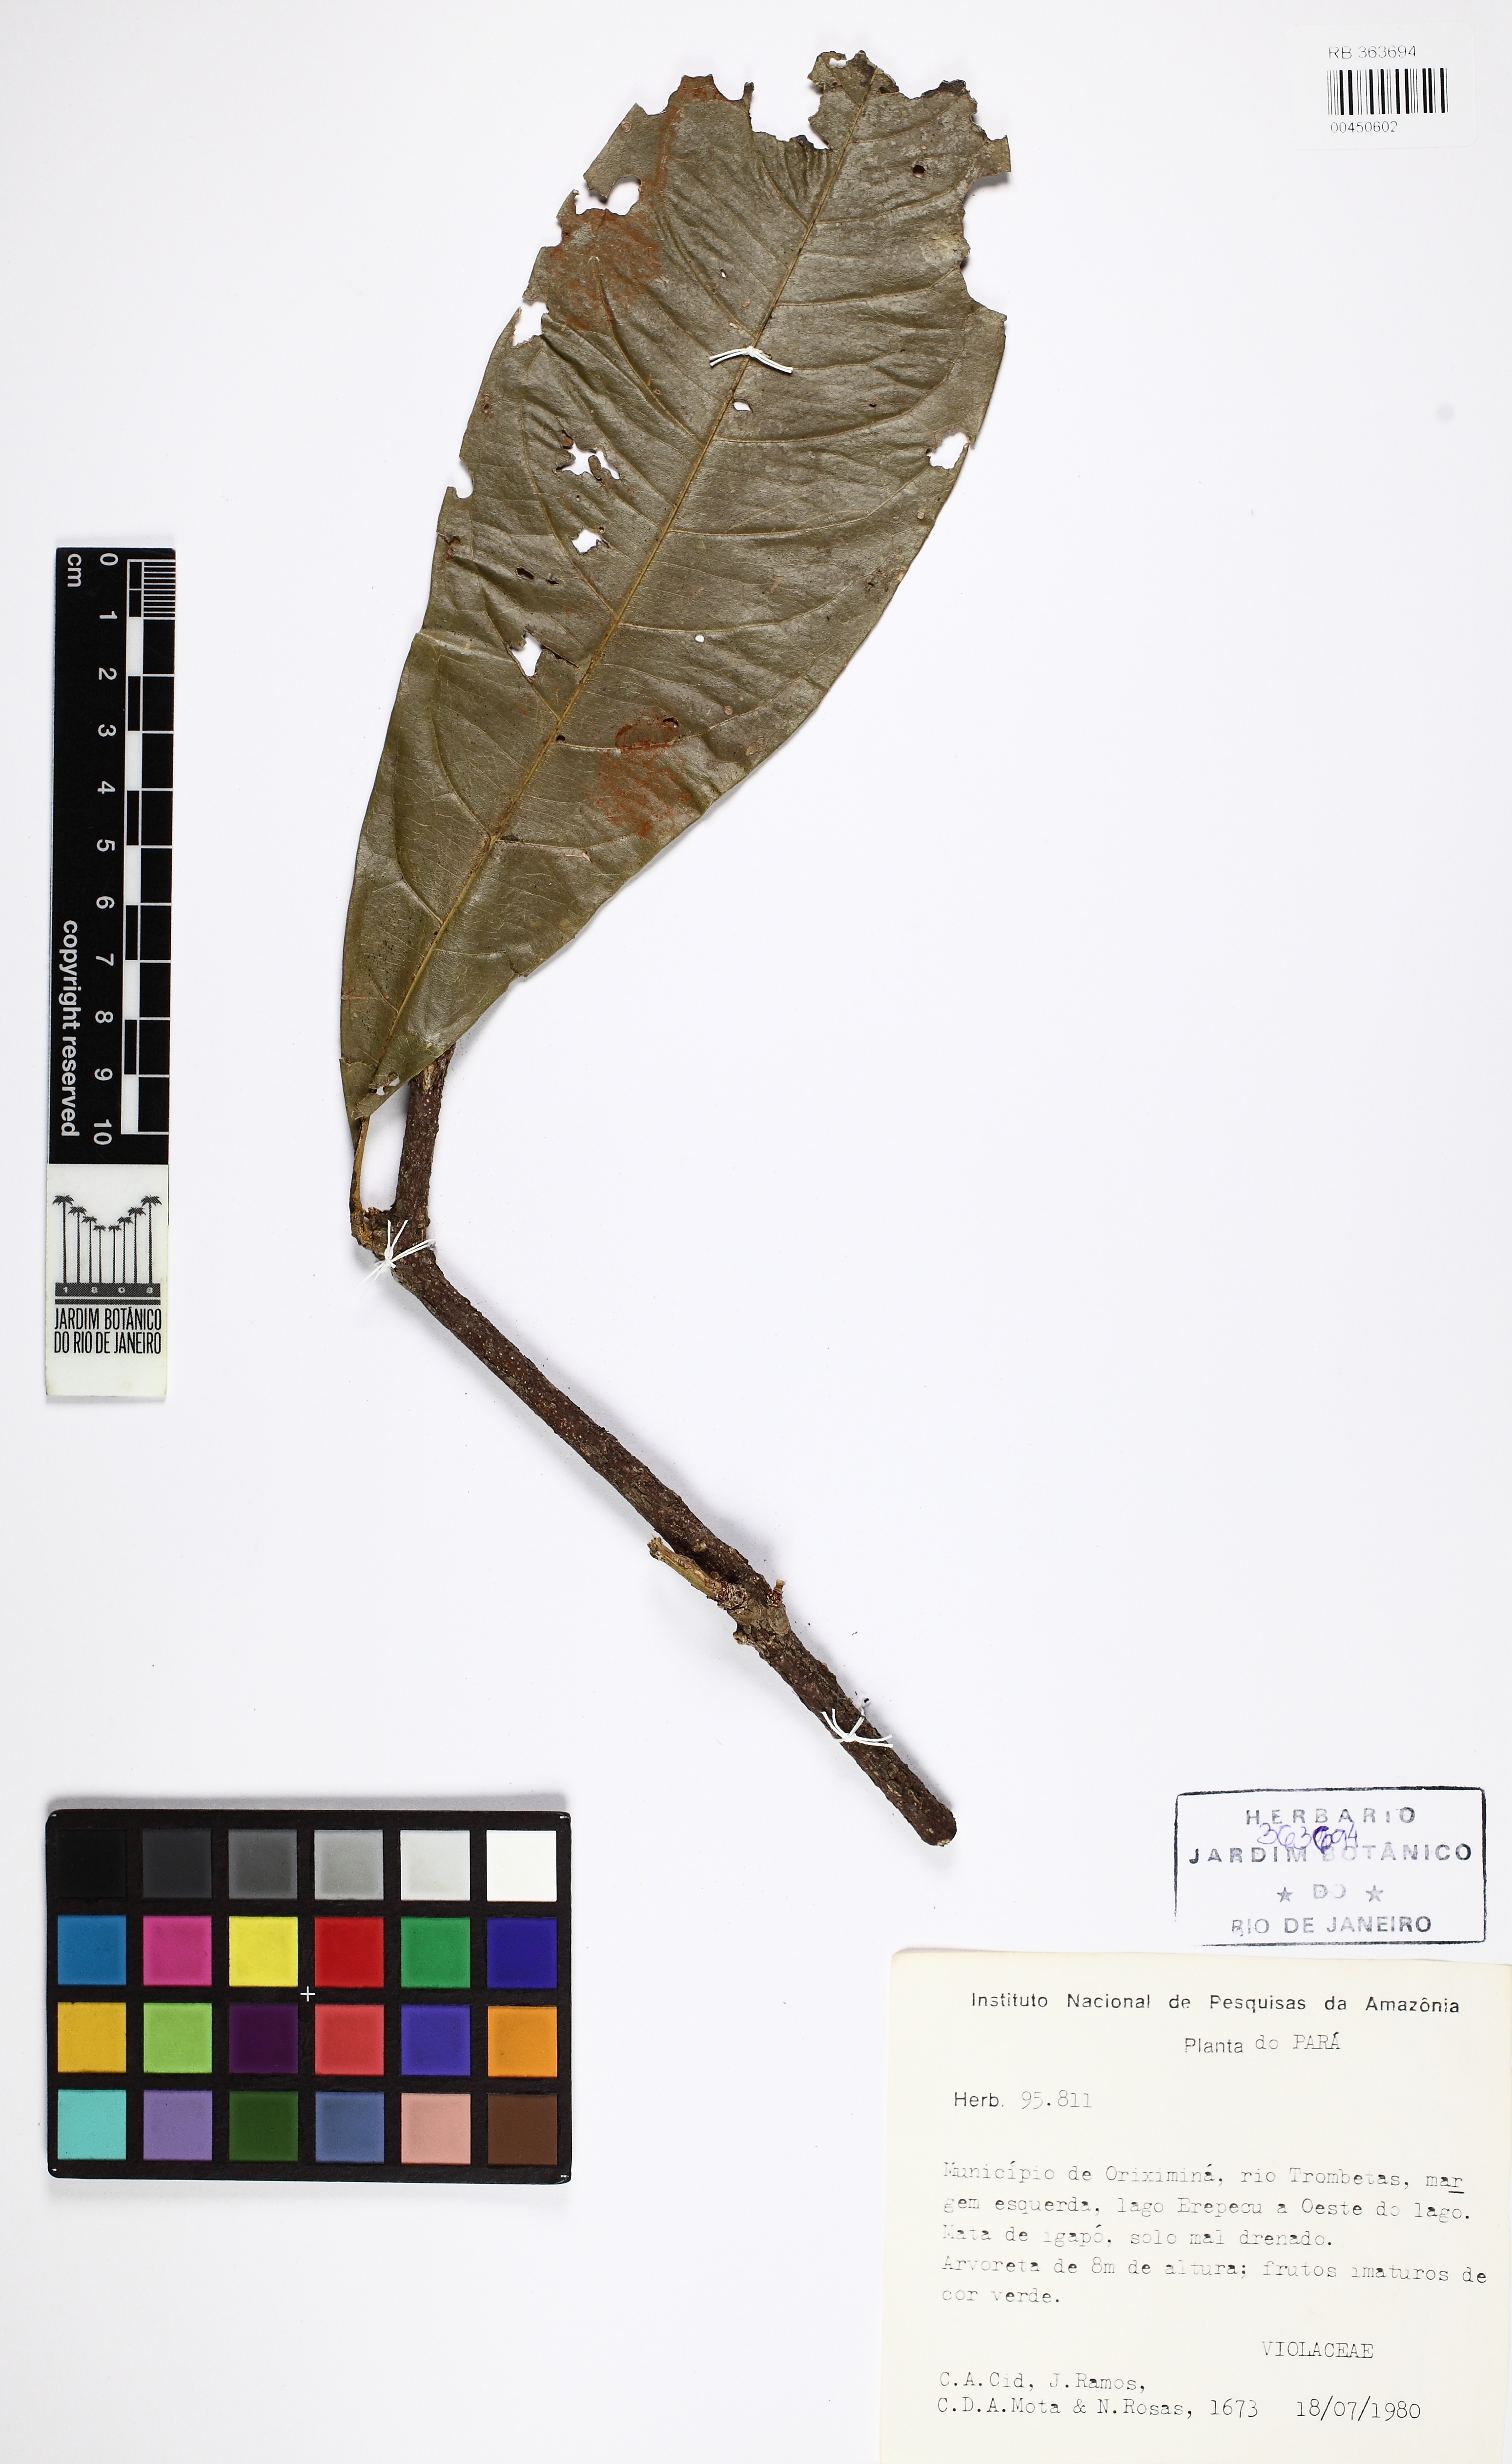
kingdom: Plantae
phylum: Tracheophyta
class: Magnoliopsida
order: Malpighiales
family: Violaceae
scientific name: Violaceae
